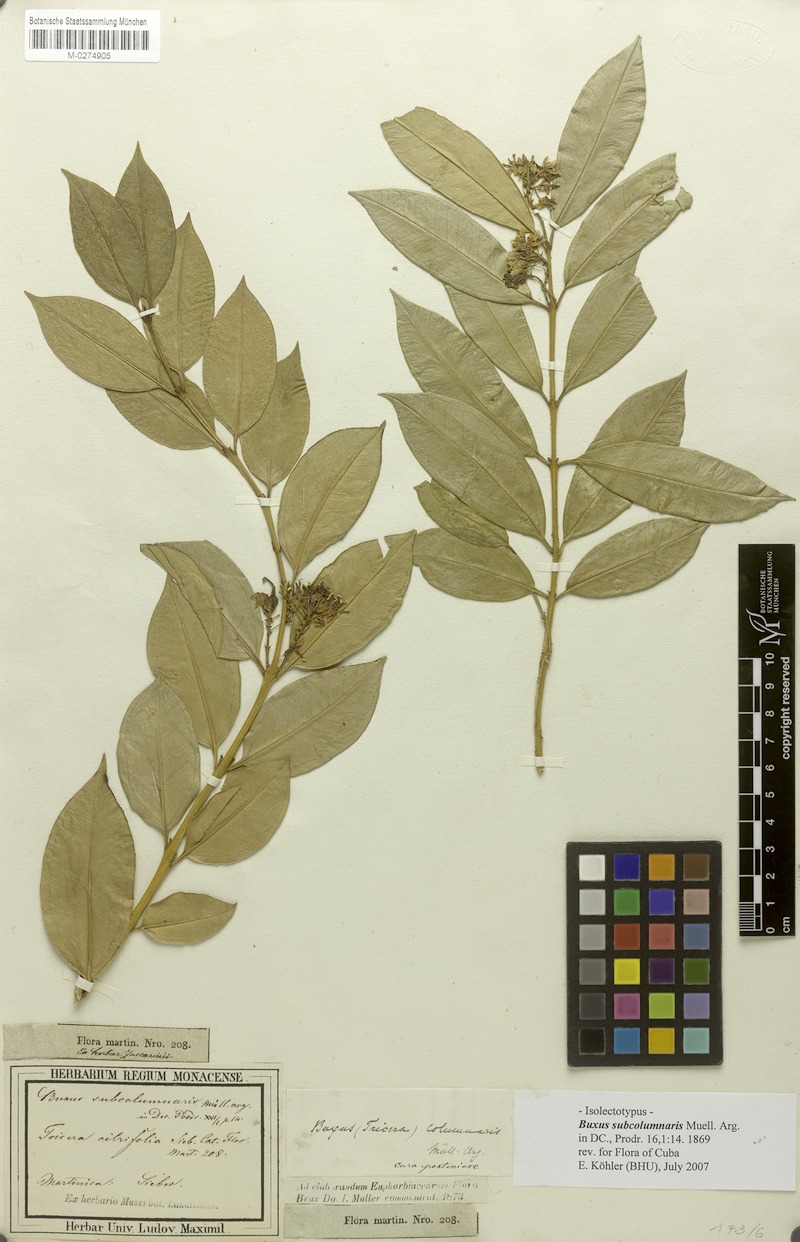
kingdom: Plantae
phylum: Tracheophyta
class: Magnoliopsida
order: Buxales
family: Buxaceae
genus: Buxus
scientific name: Buxus subcolumnaris
